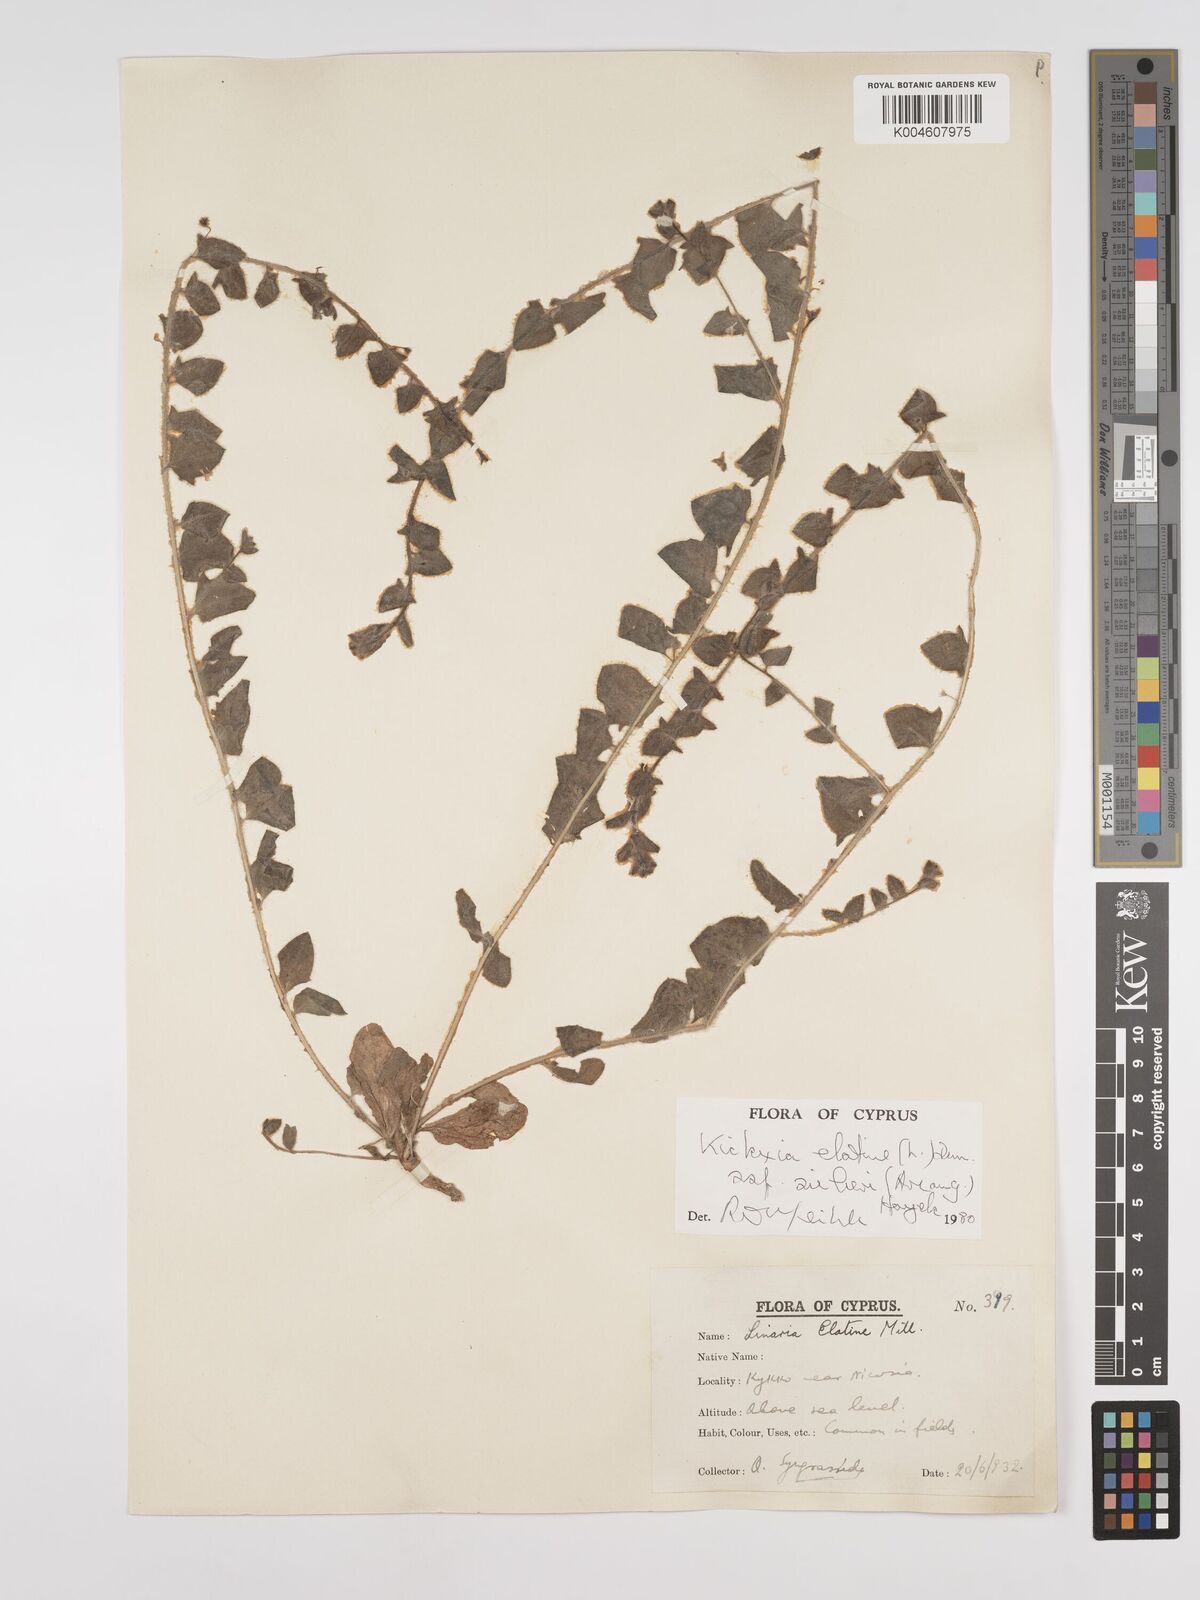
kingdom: Plantae
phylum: Tracheophyta
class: Magnoliopsida
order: Lamiales
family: Plantaginaceae
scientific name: Plantaginaceae
